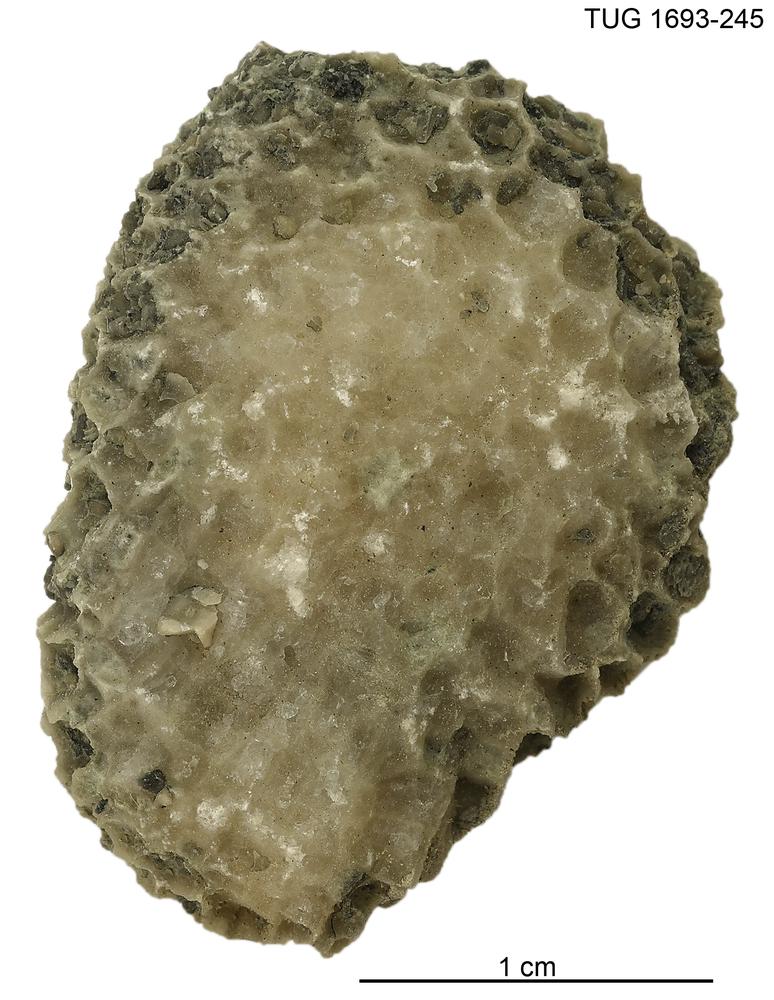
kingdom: Animalia
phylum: Cnidaria
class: Anthozoa
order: Heliolitina
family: Heliolitidae
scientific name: Heliolitidae
